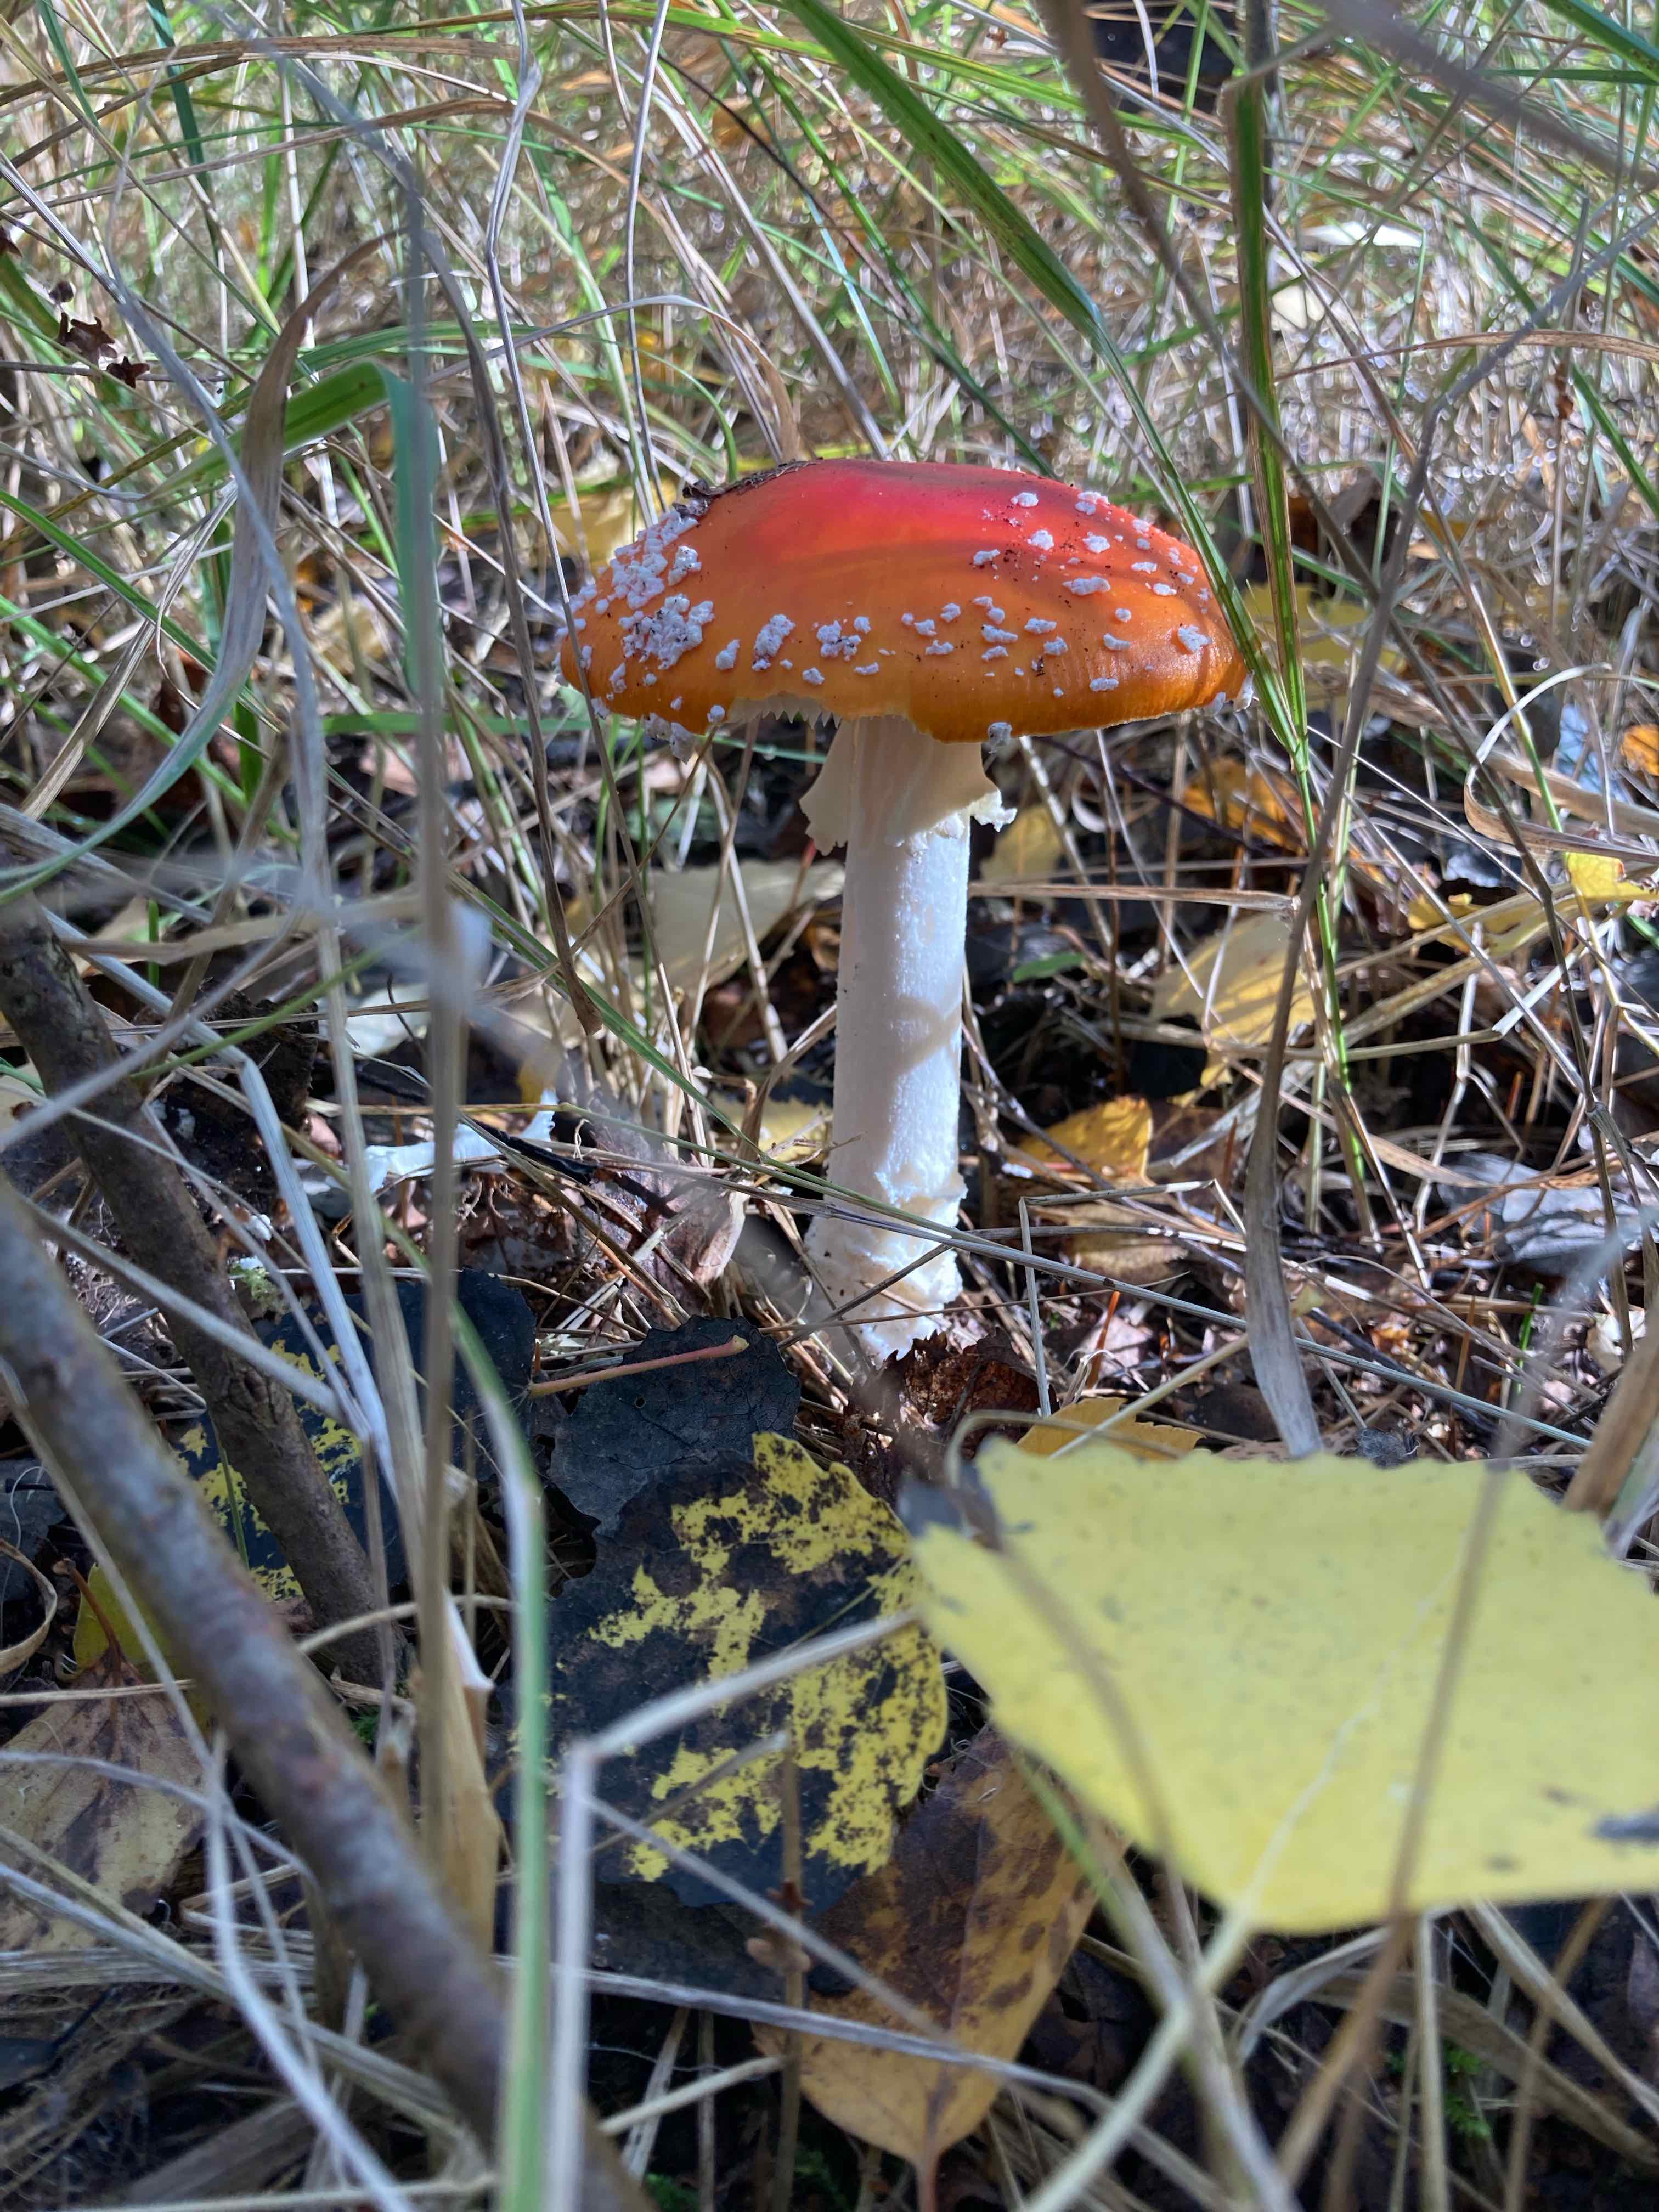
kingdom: Fungi
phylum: Basidiomycota
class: Agaricomycetes
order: Agaricales
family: Amanitaceae
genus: Amanita
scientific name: Amanita muscaria
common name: rød fluesvamp
